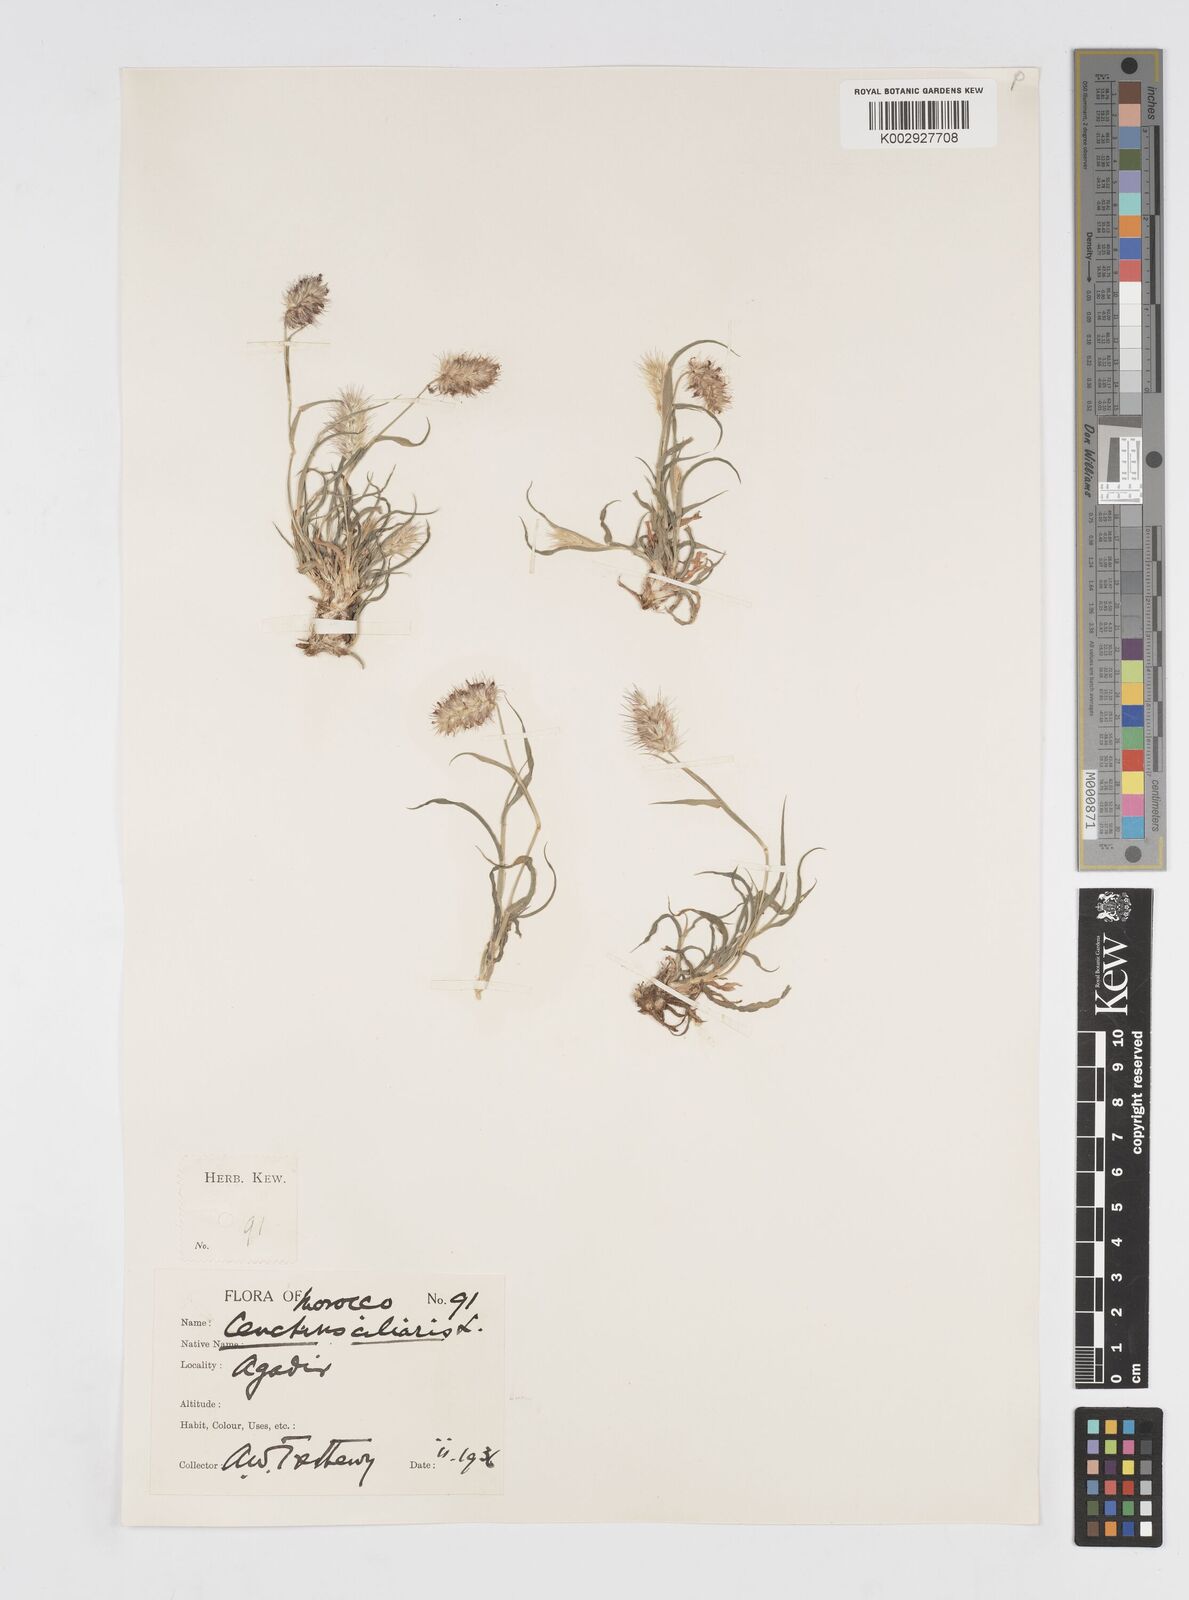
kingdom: Plantae
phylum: Tracheophyta
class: Liliopsida
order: Poales
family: Poaceae
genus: Cenchrus
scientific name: Cenchrus ciliaris
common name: Buffelgrass
